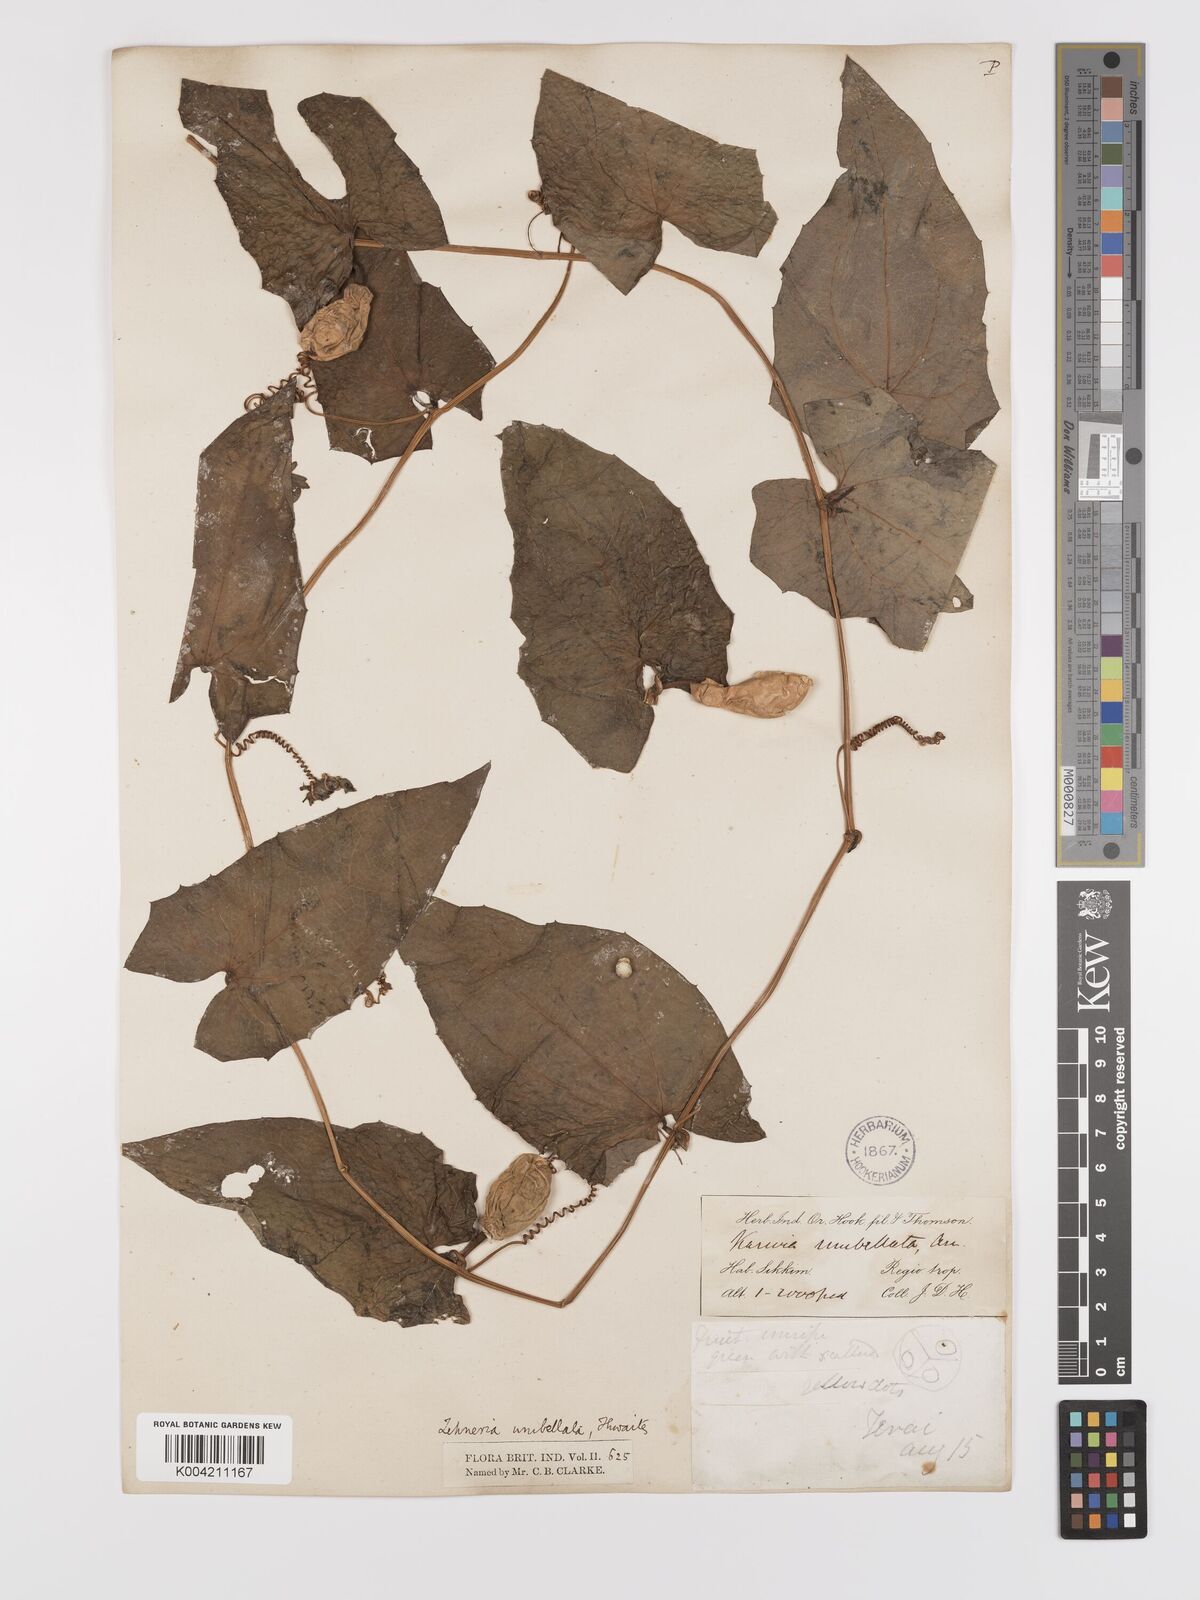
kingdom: Plantae
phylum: Tracheophyta
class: Magnoliopsida
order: Cucurbitales
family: Cucurbitaceae
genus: Solena
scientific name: Solena amplexicaulis
